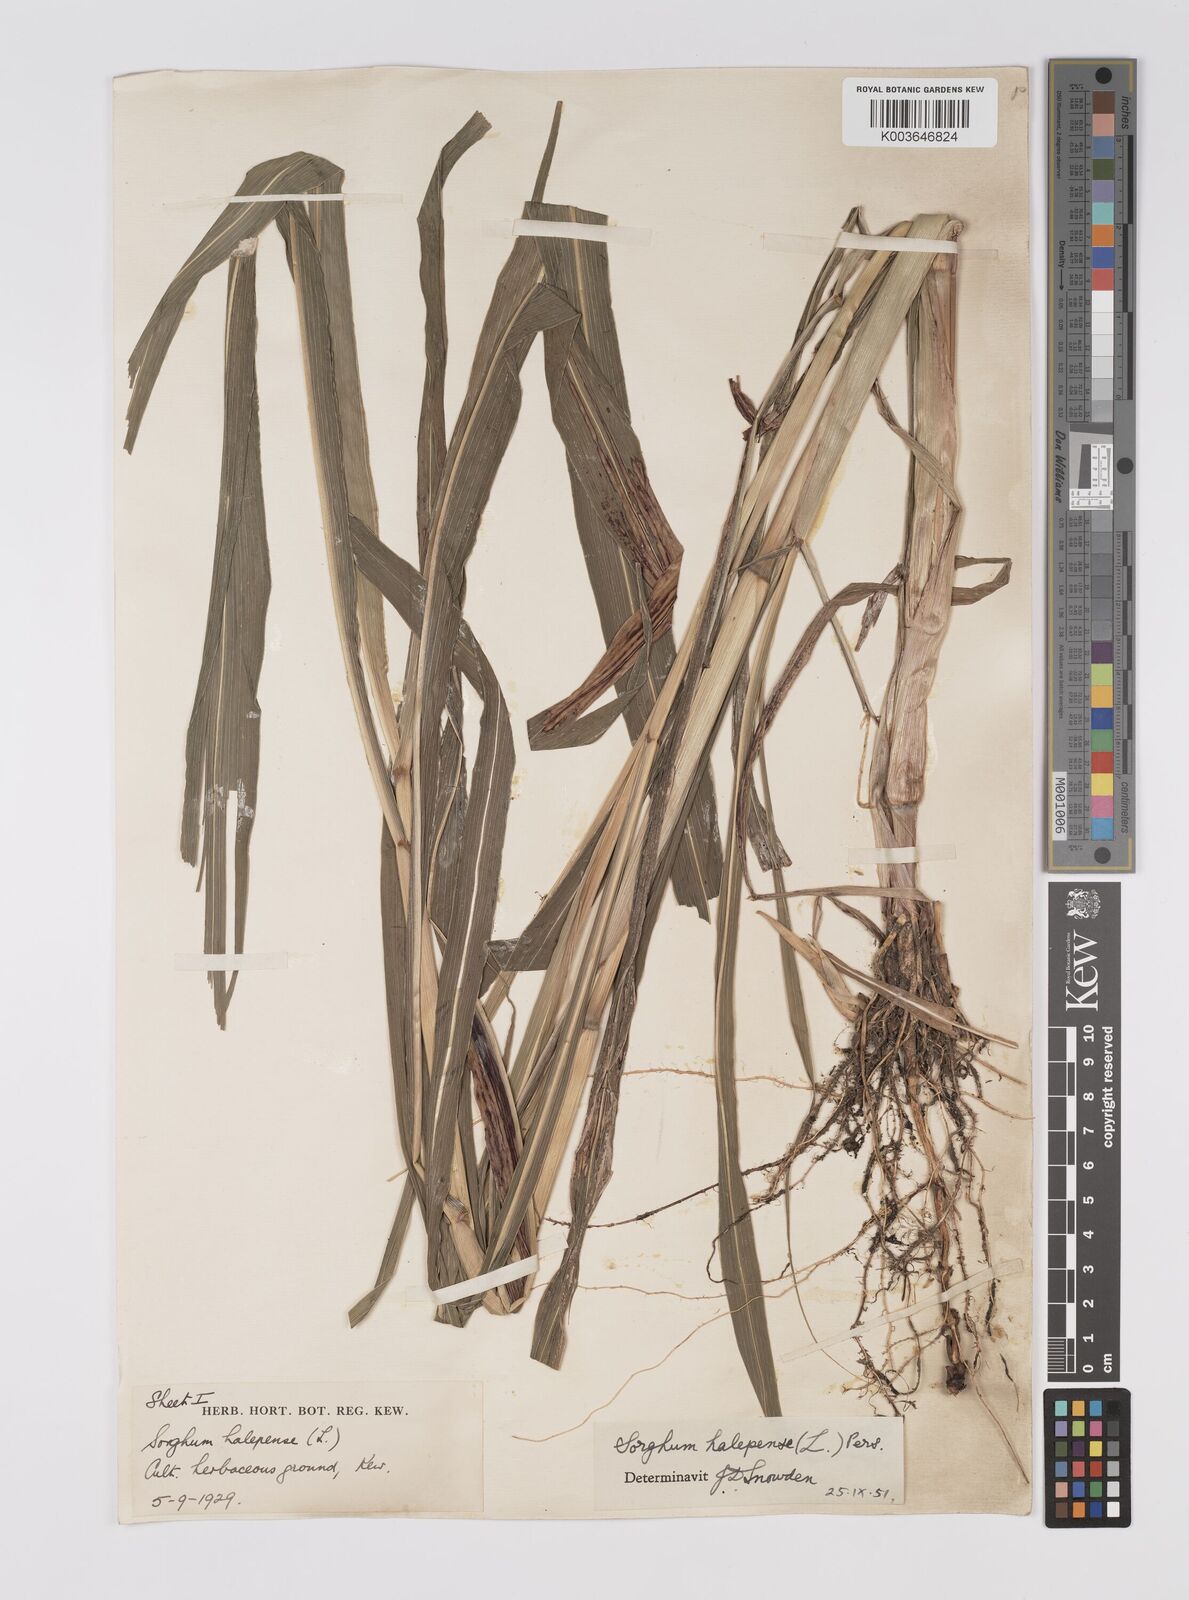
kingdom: Plantae
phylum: Tracheophyta
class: Liliopsida
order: Poales
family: Poaceae
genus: Sorghum
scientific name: Sorghum halepense
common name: Johnson-grass
